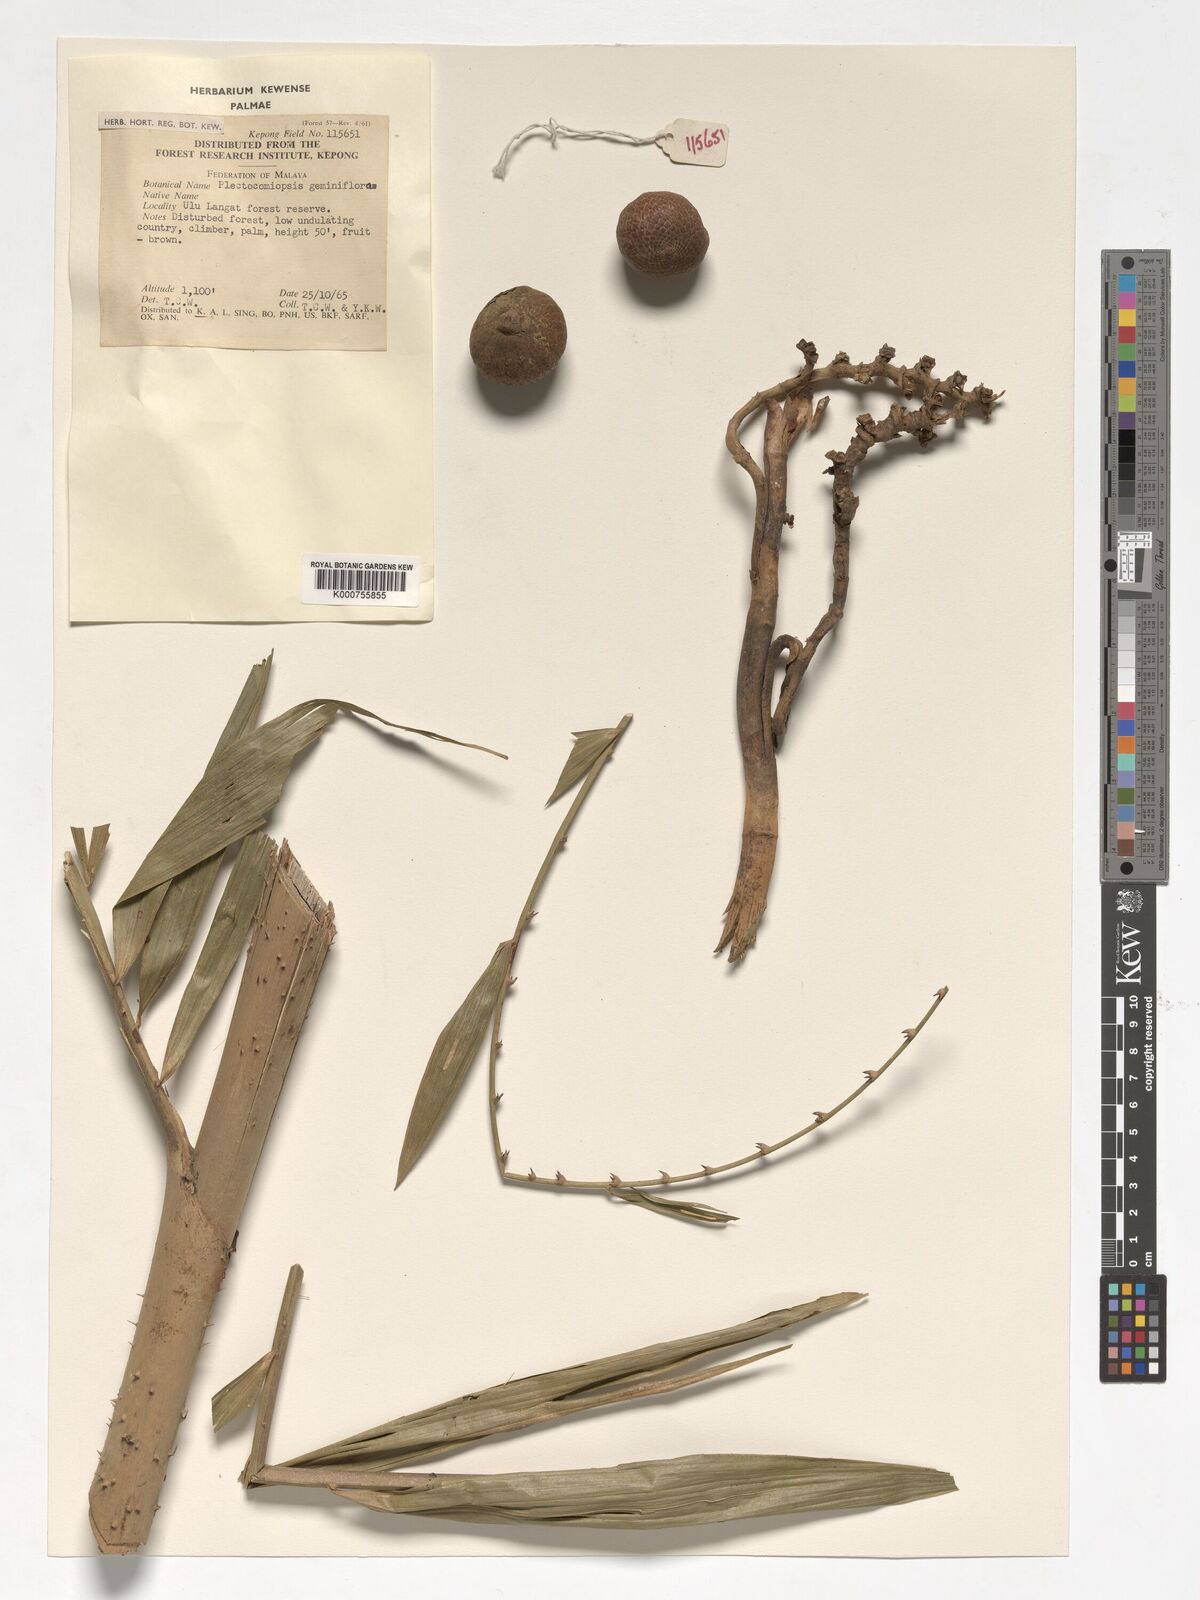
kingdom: Plantae
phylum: Tracheophyta
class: Liliopsida
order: Arecales
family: Arecaceae
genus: Plectocomiopsis
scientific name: Plectocomiopsis geminiflora
